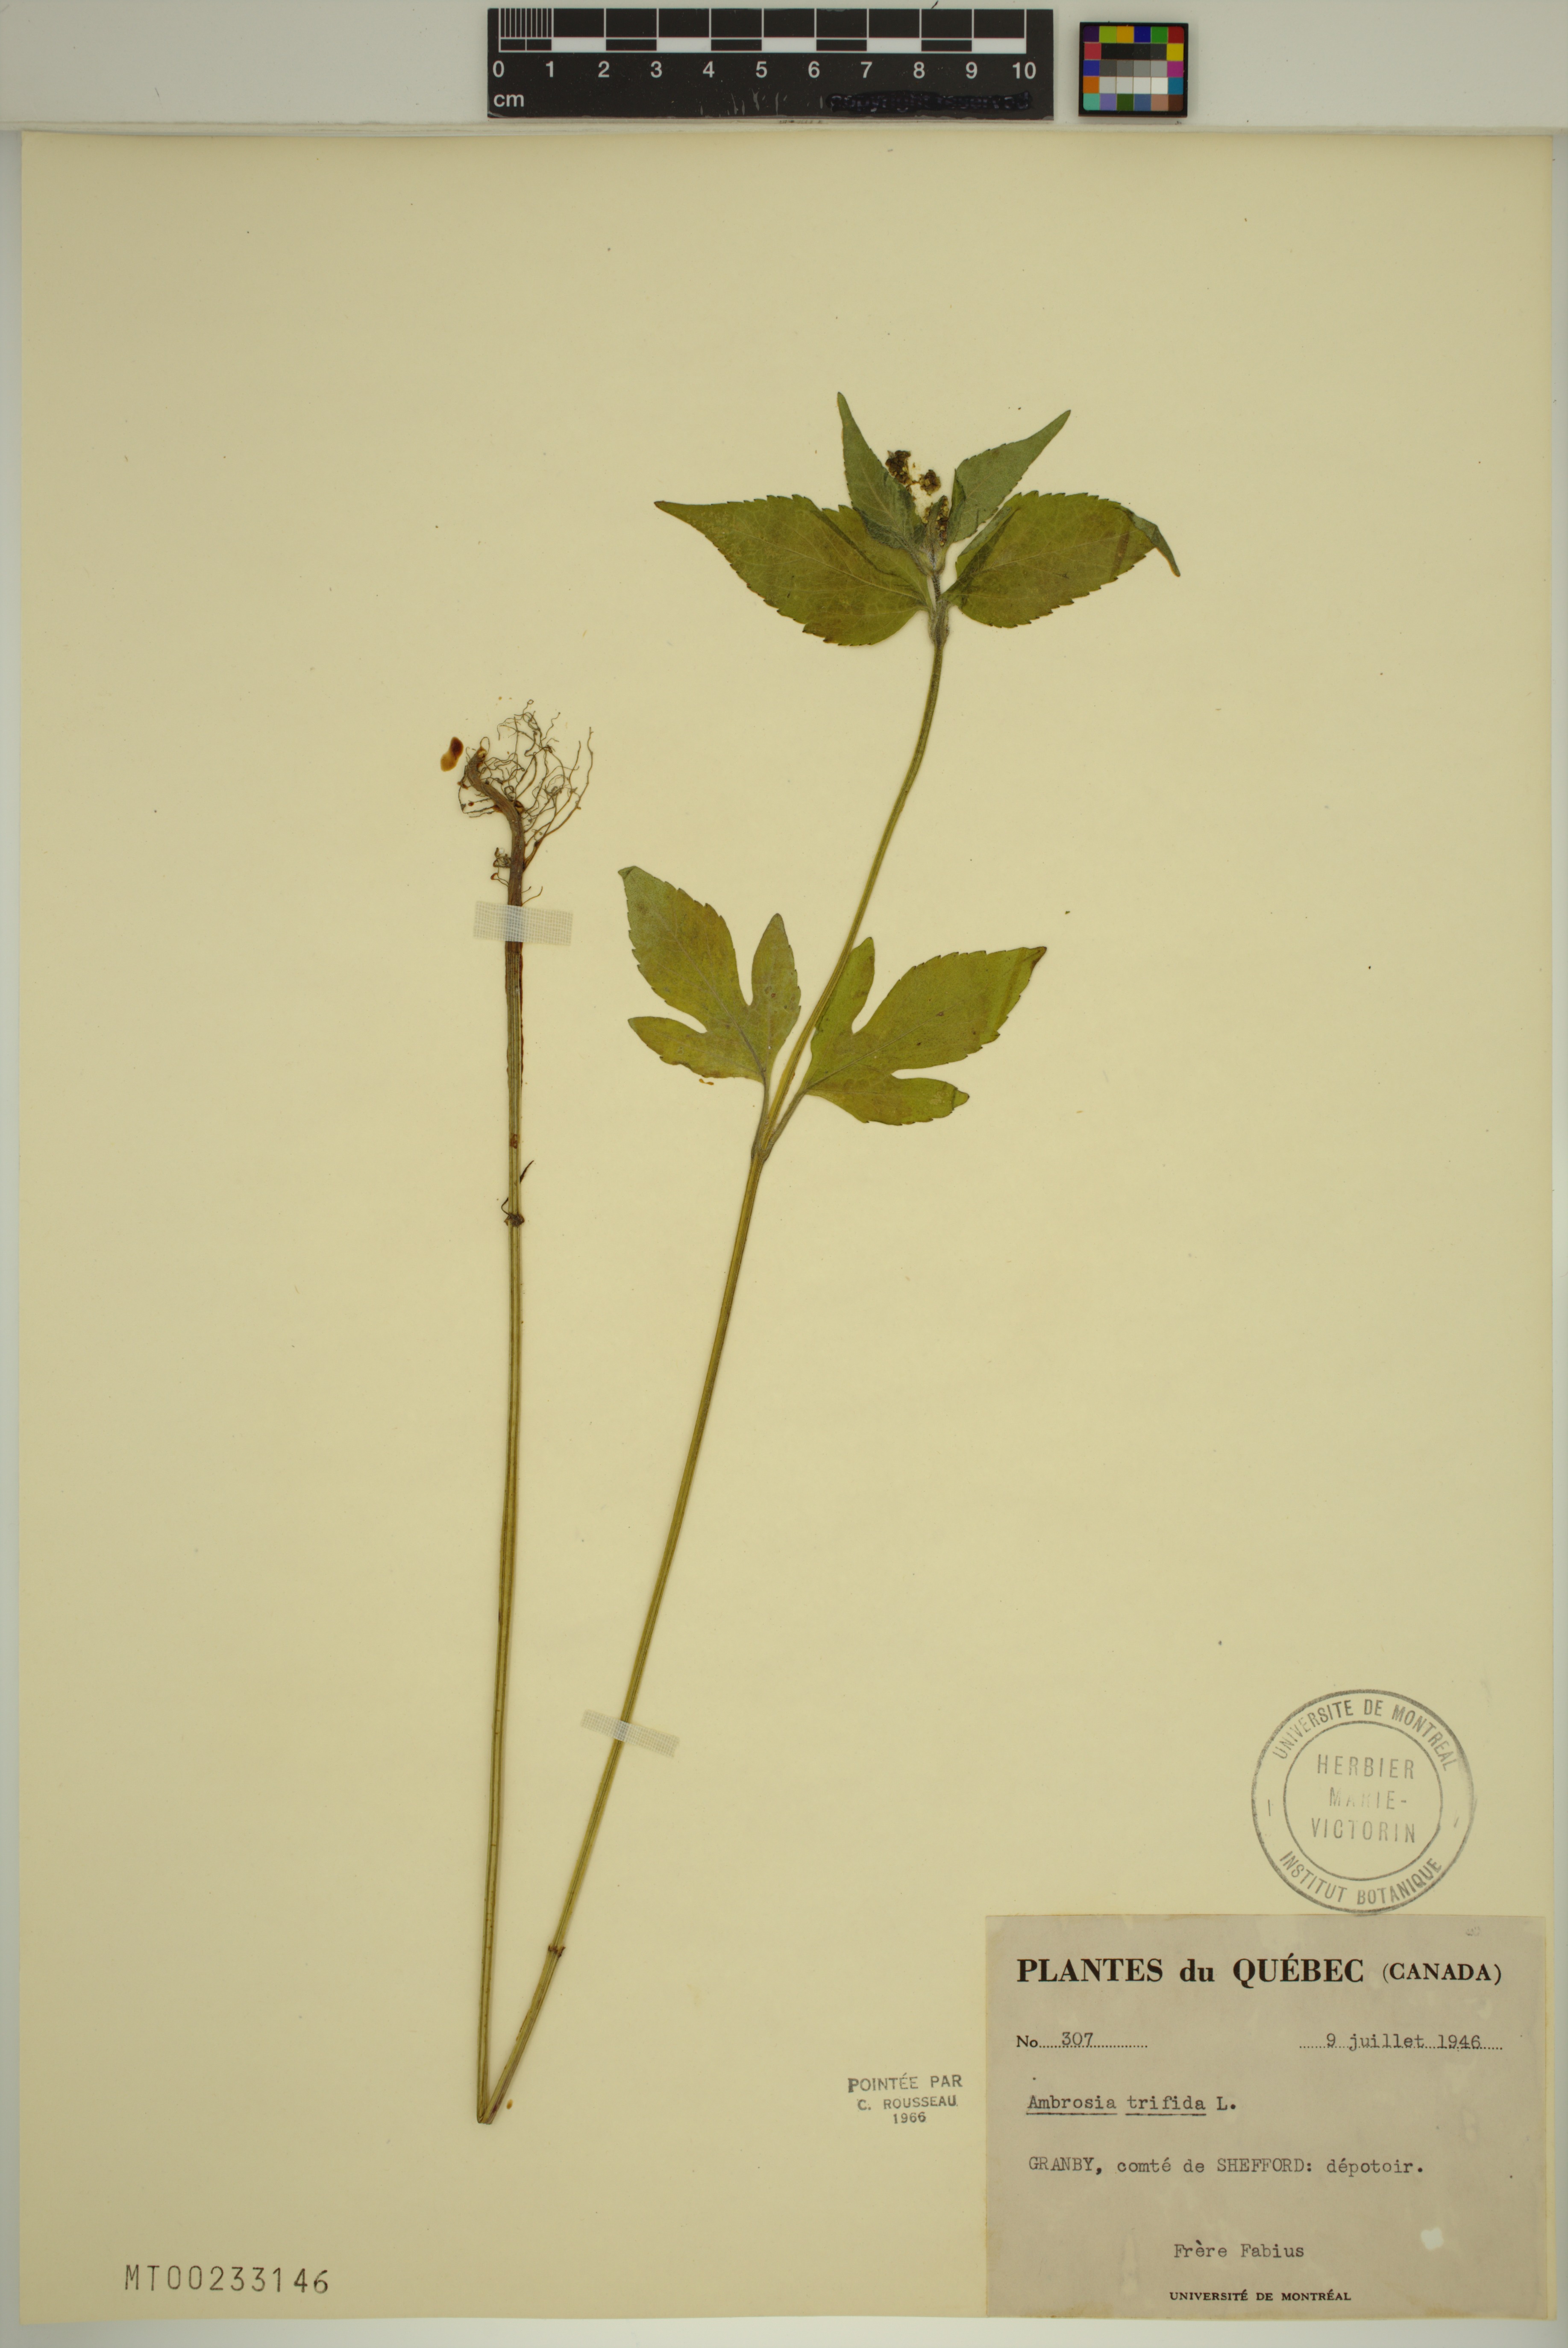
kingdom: Plantae
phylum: Tracheophyta
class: Magnoliopsida
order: Asterales
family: Asteraceae
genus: Ambrosia
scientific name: Ambrosia trifida
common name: Giant ragweed
